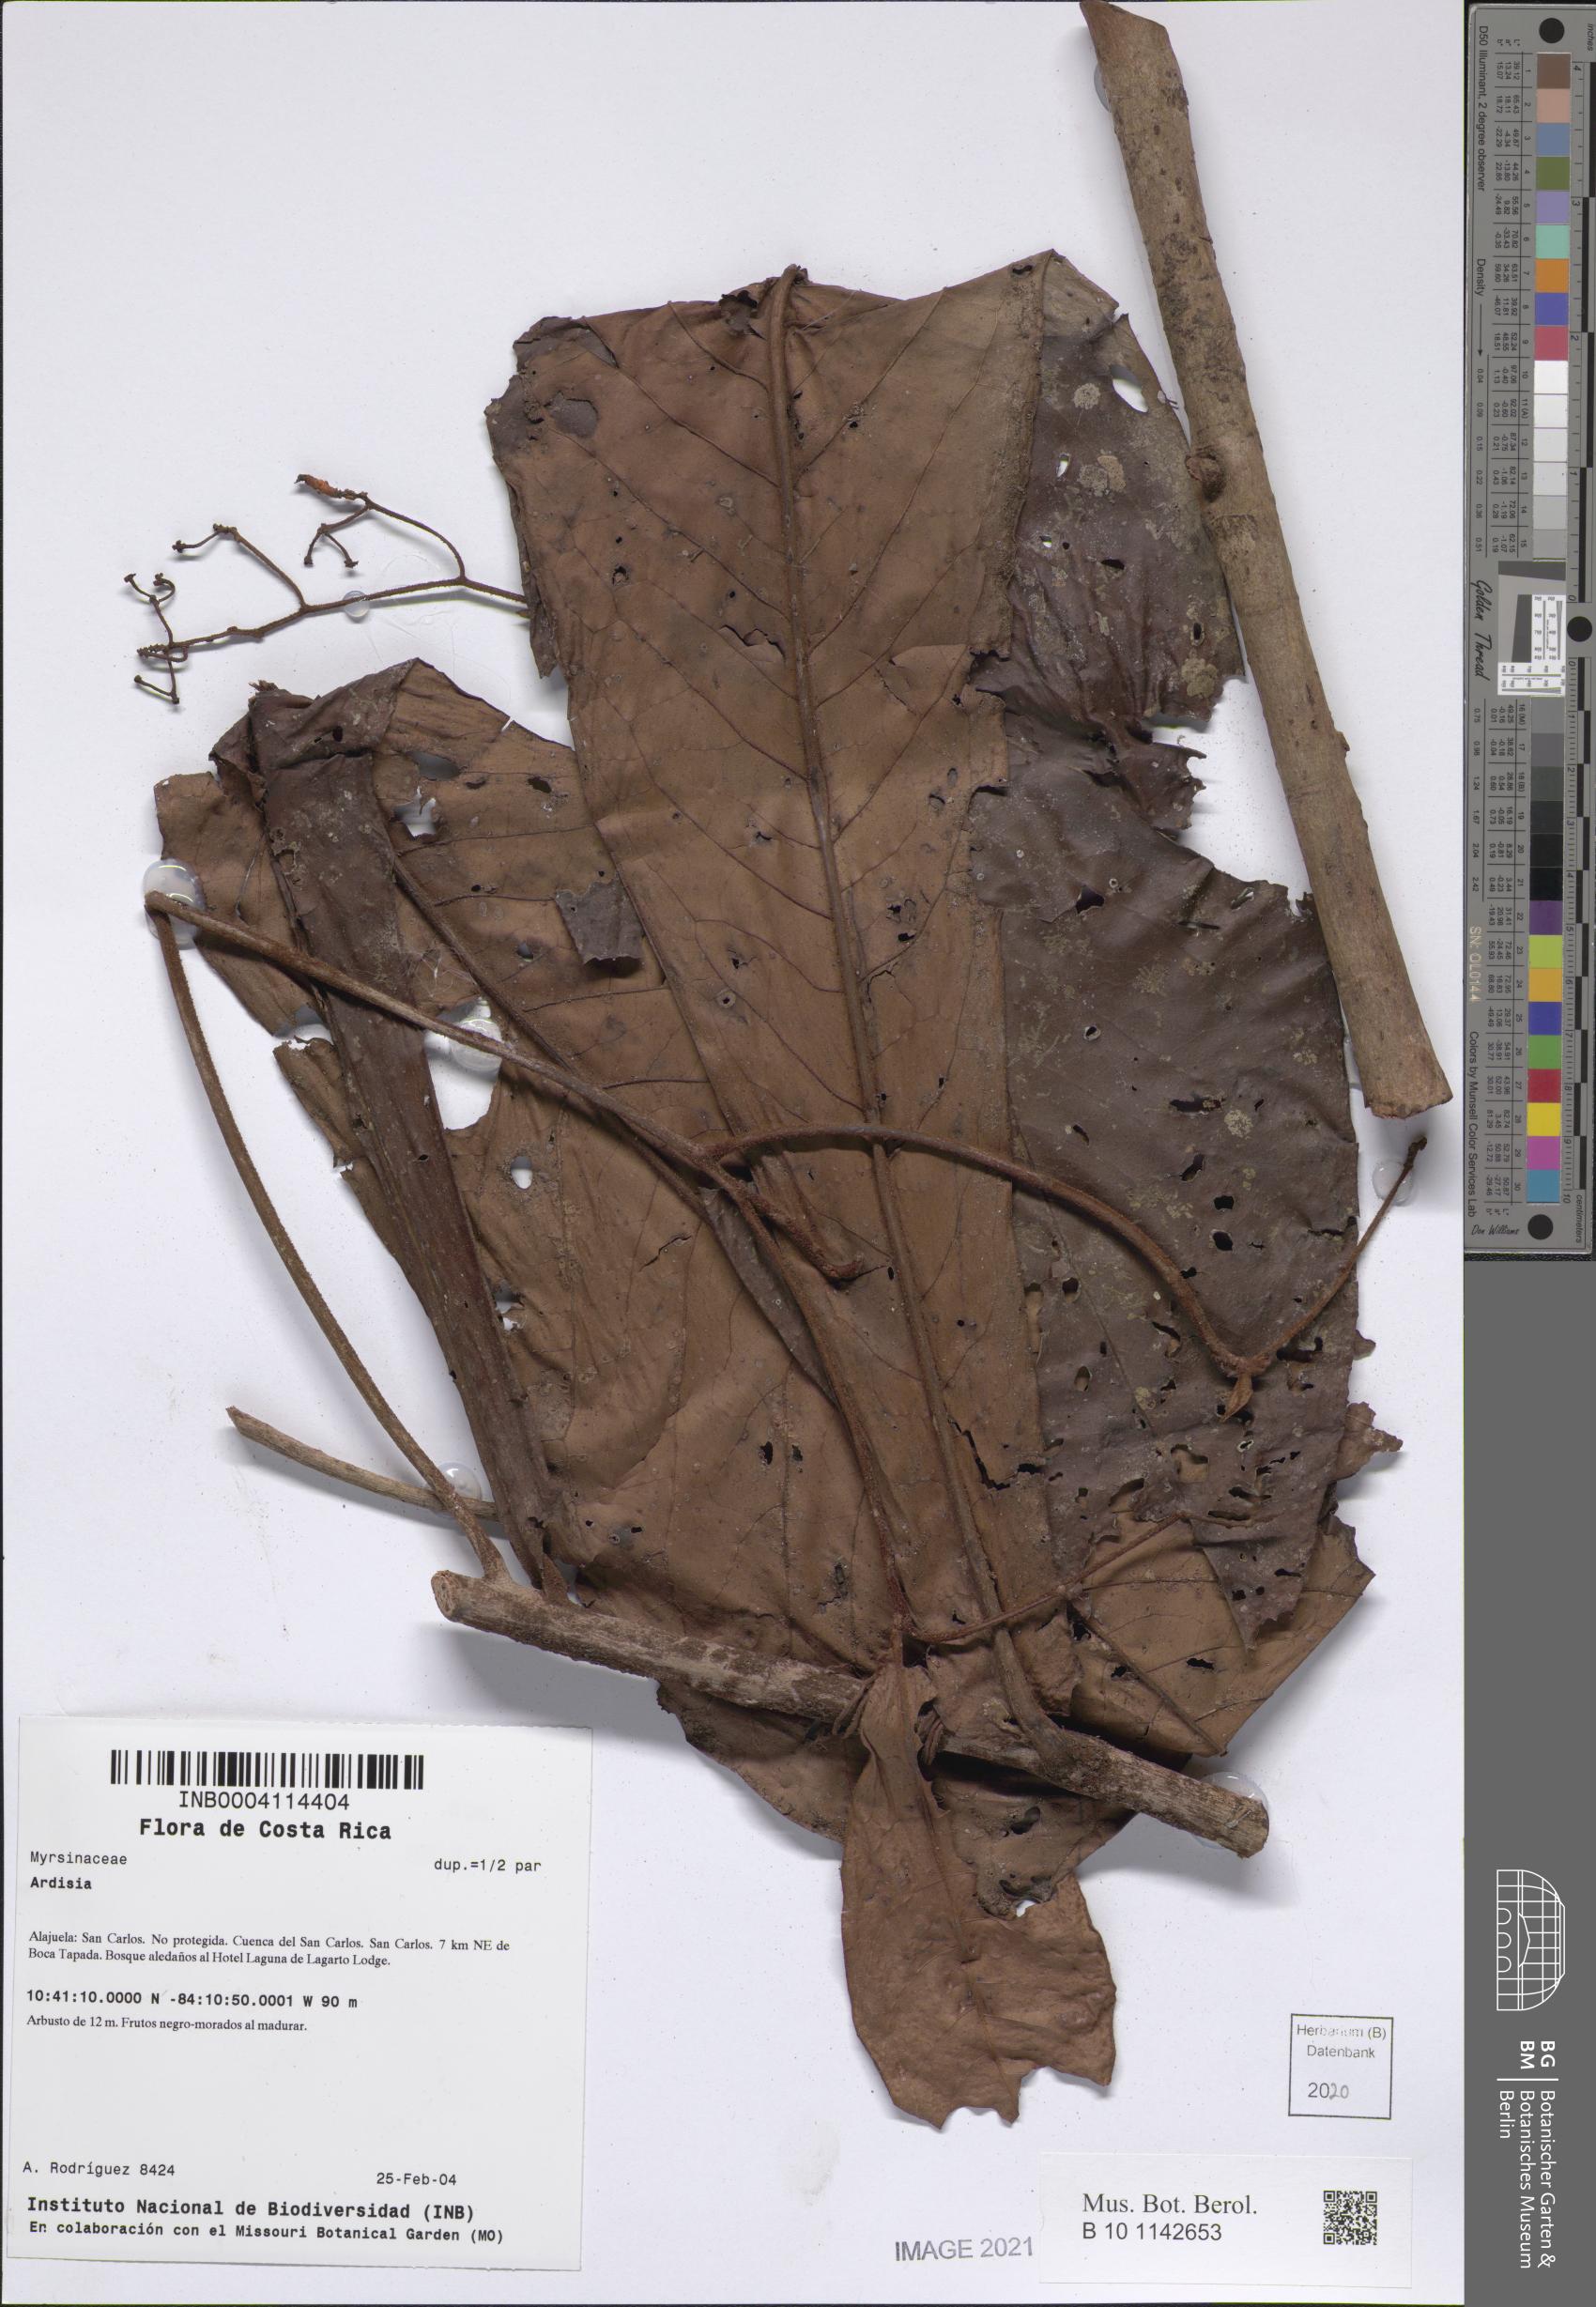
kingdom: Plantae
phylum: Tracheophyta
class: Magnoliopsida
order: Ericales
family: Primulaceae
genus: Ardisia
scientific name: Ardisia
